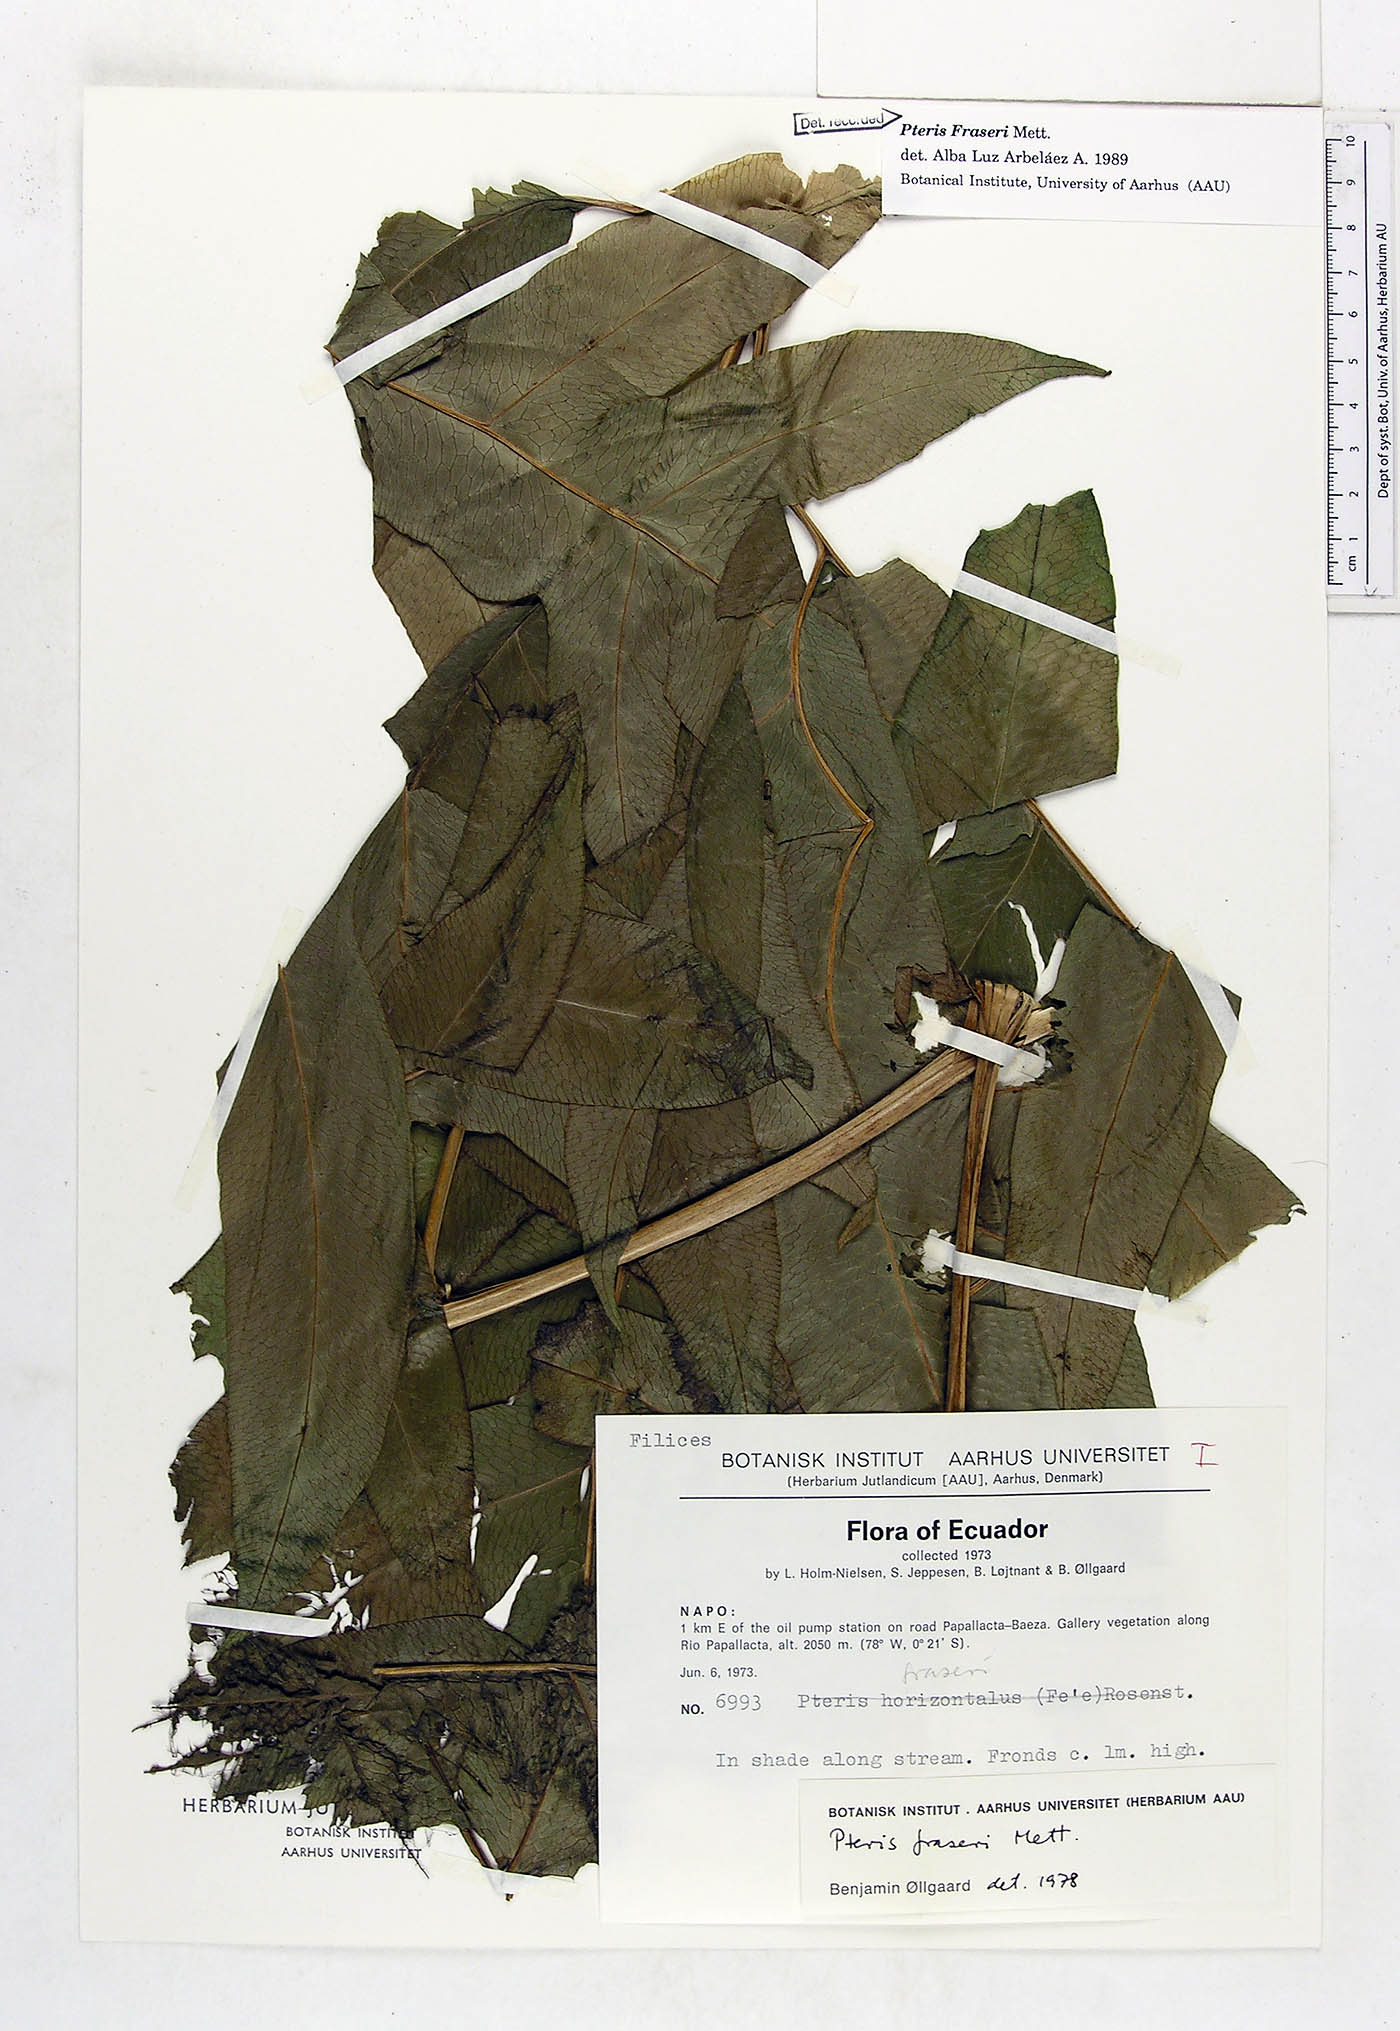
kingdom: Plantae
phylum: Tracheophyta
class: Polypodiopsida
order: Polypodiales
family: Pteridaceae
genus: Pteris
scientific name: Pteris fraseri
